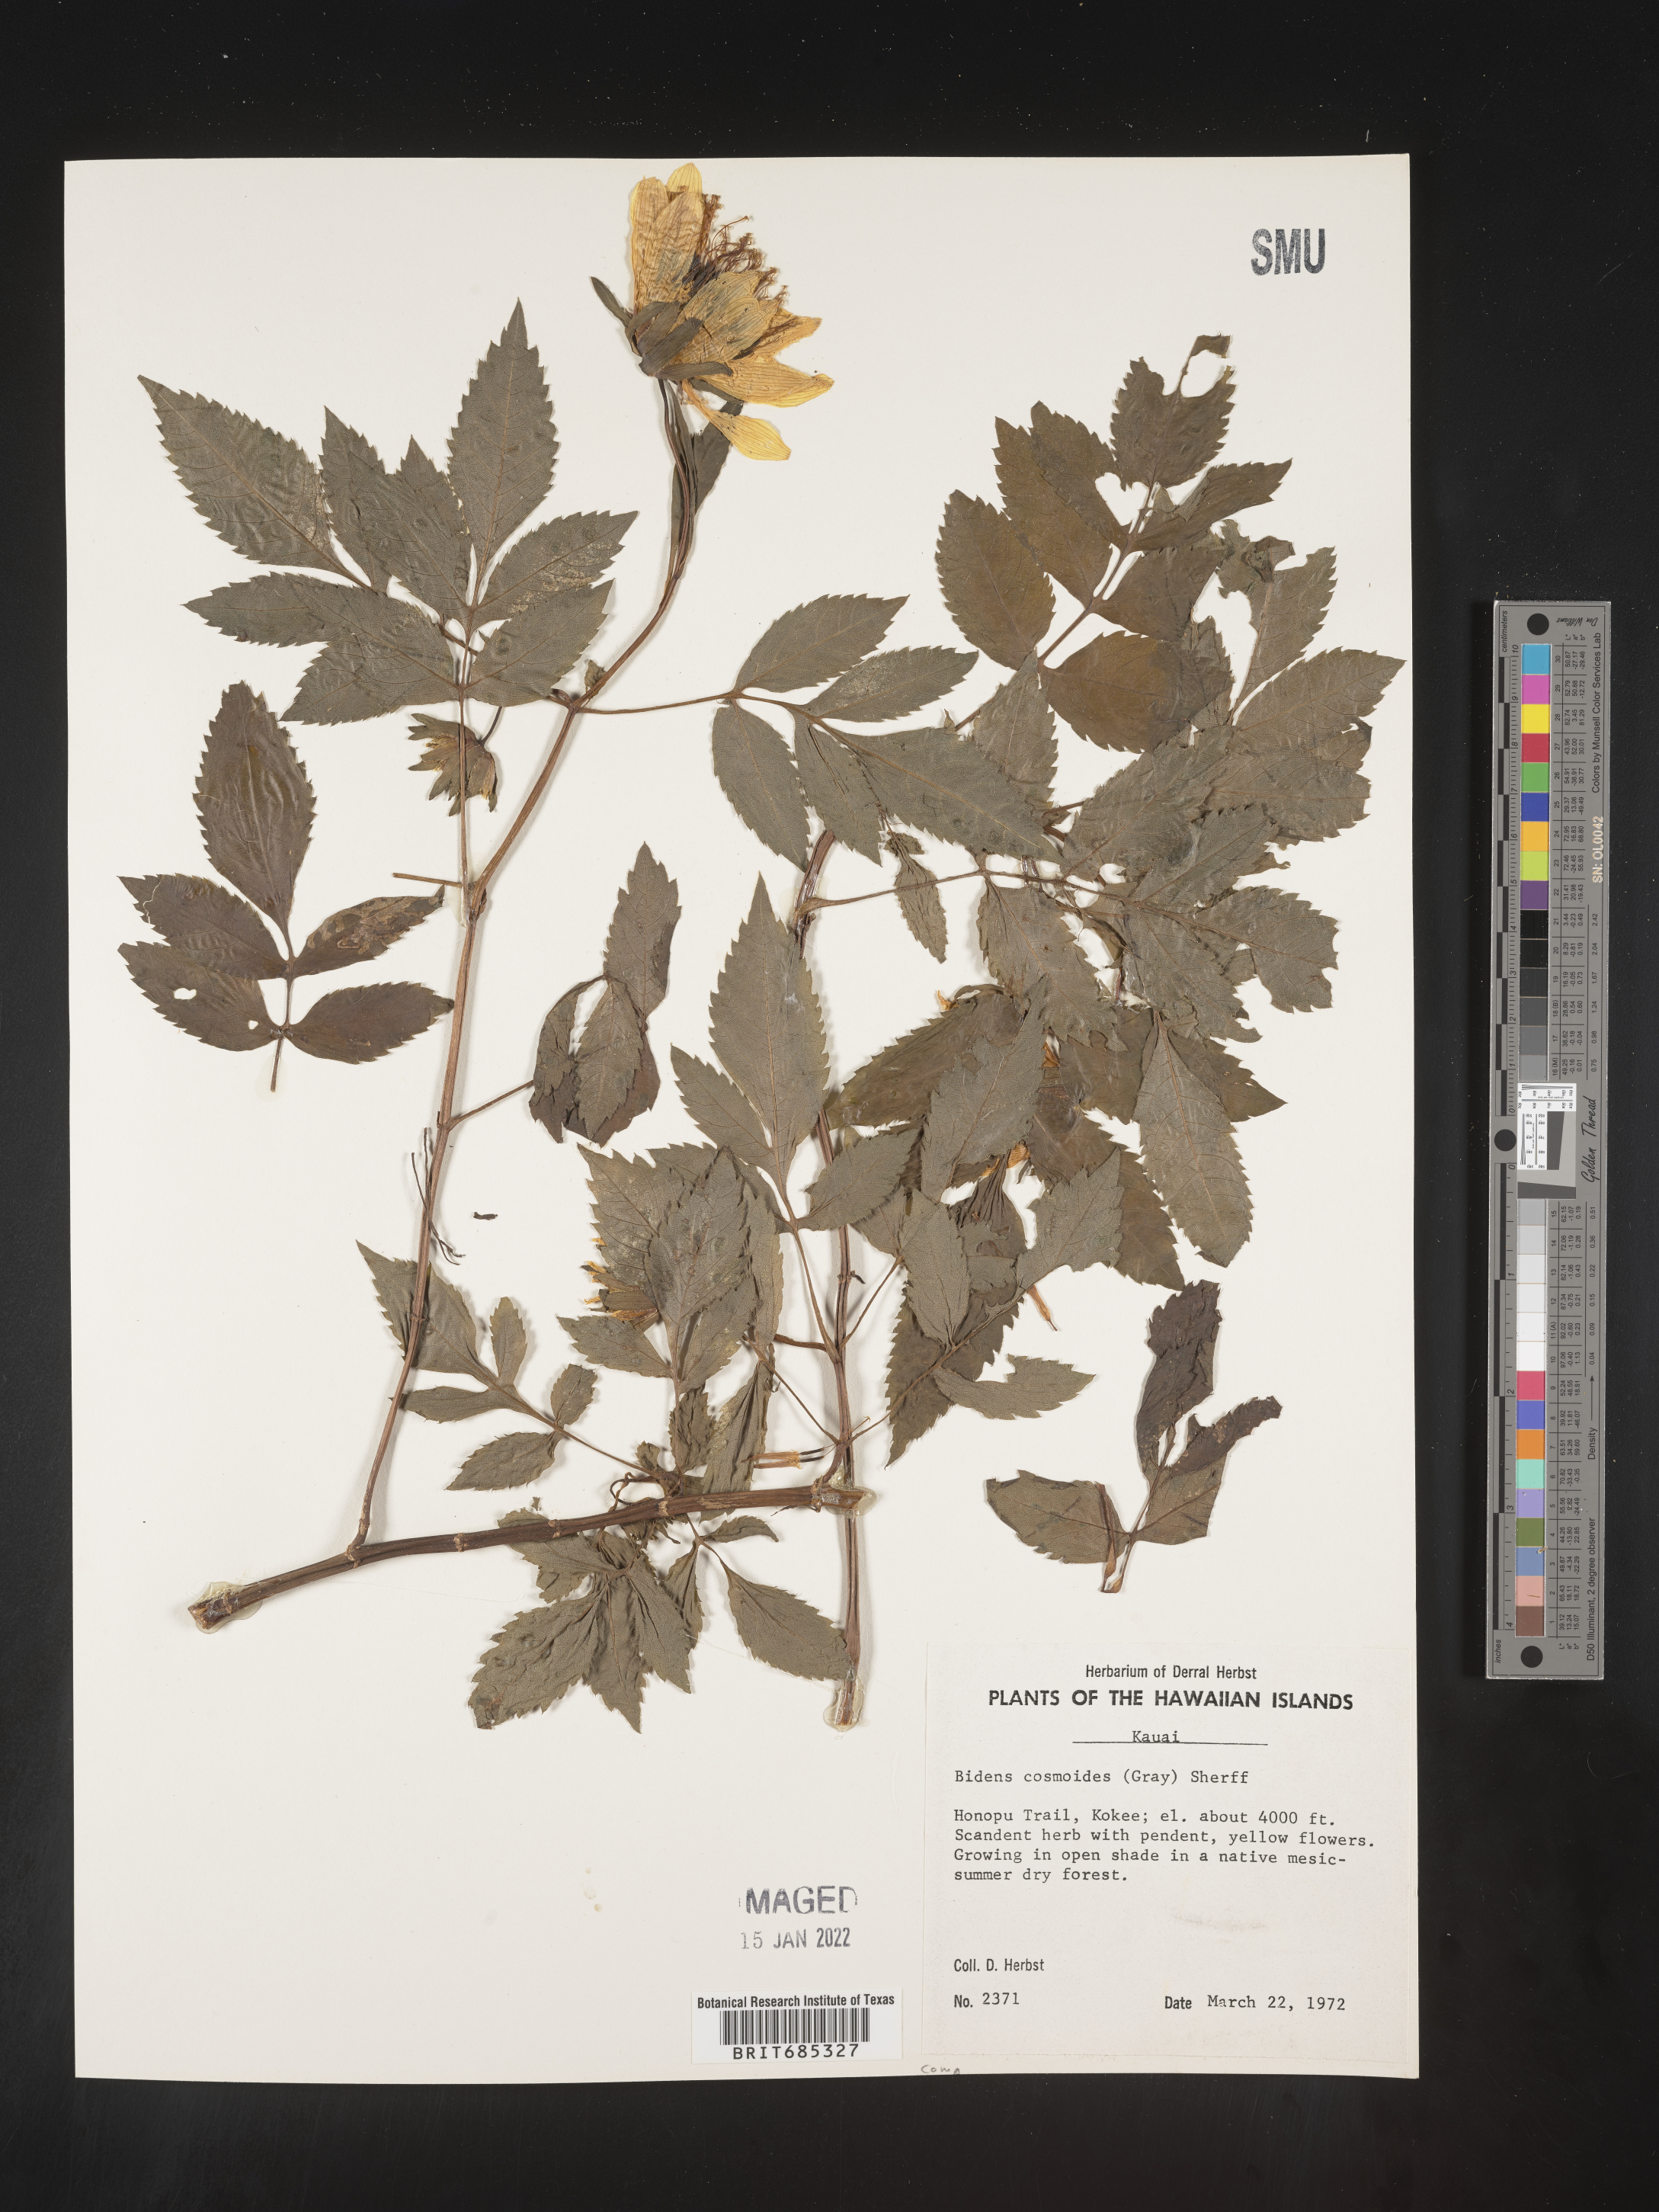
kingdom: Plantae
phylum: Tracheophyta
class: Magnoliopsida
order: Asterales
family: Asteraceae
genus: Bidens
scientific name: Bidens
